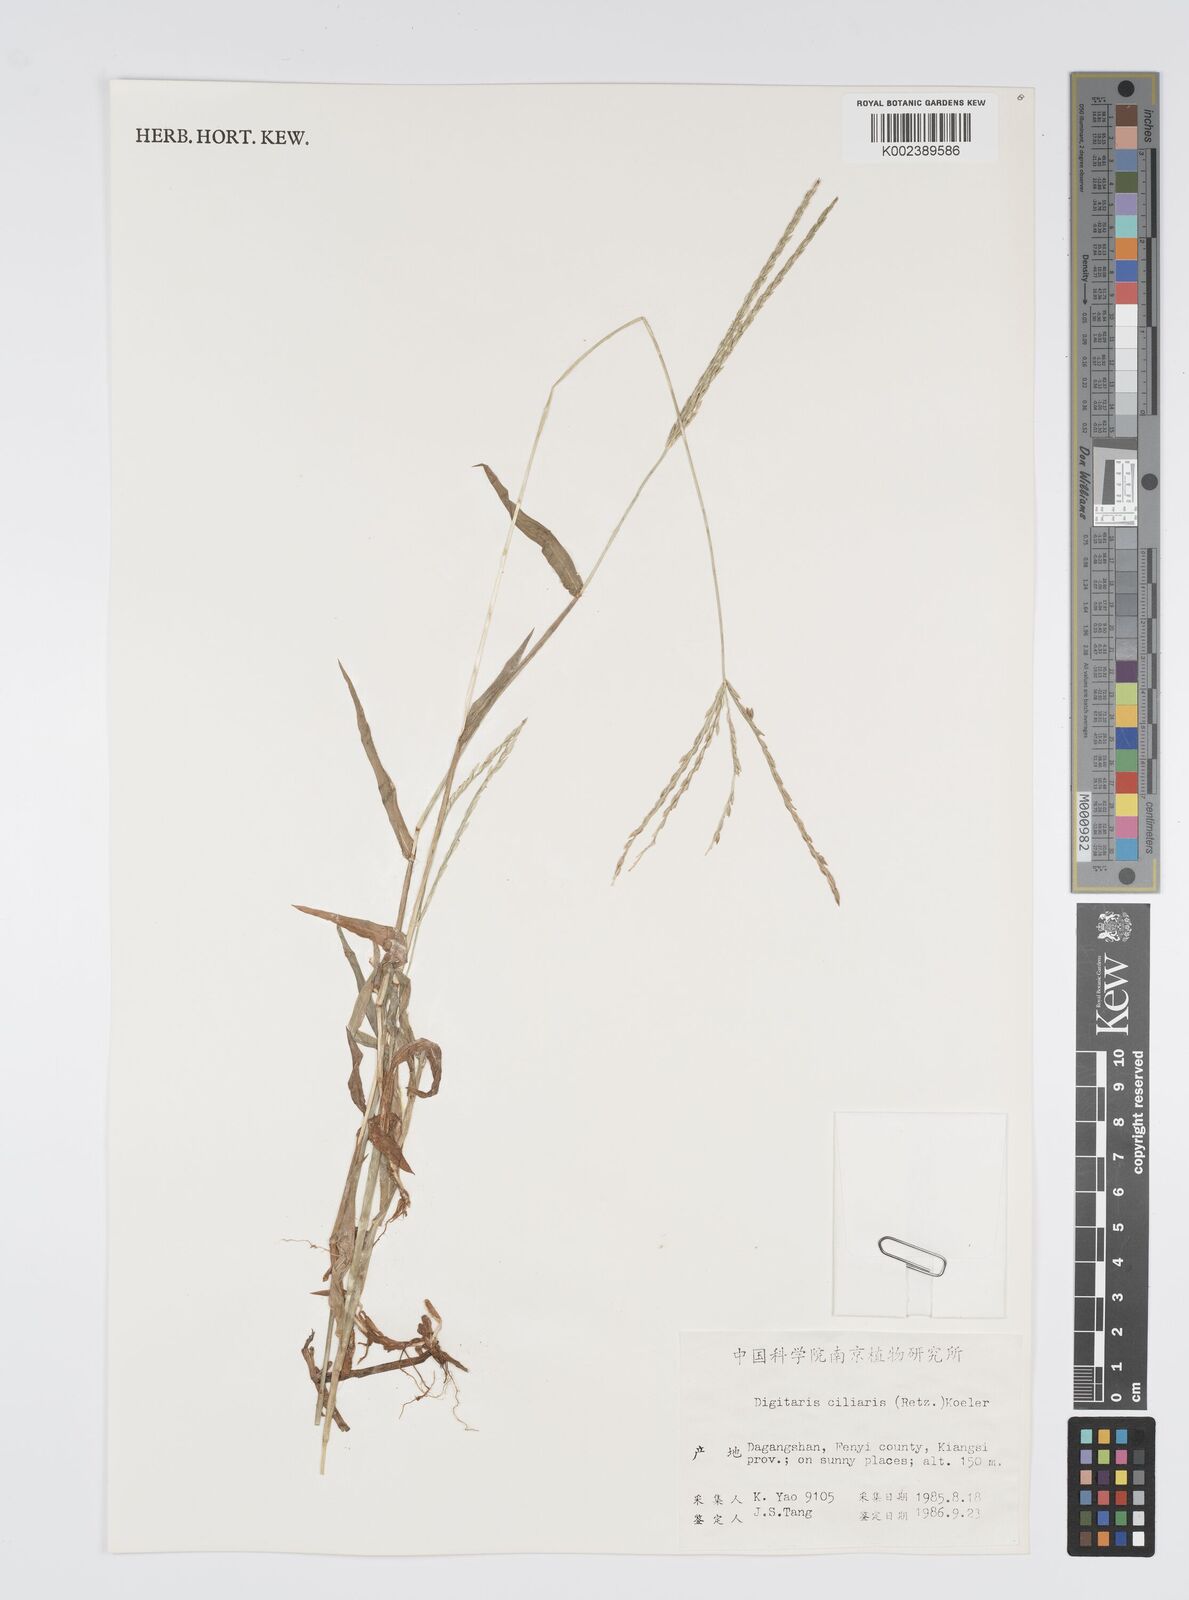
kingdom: Plantae
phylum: Tracheophyta
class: Liliopsida
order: Poales
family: Poaceae
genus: Digitaria
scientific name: Digitaria ciliaris
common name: Tropical finger-grass
